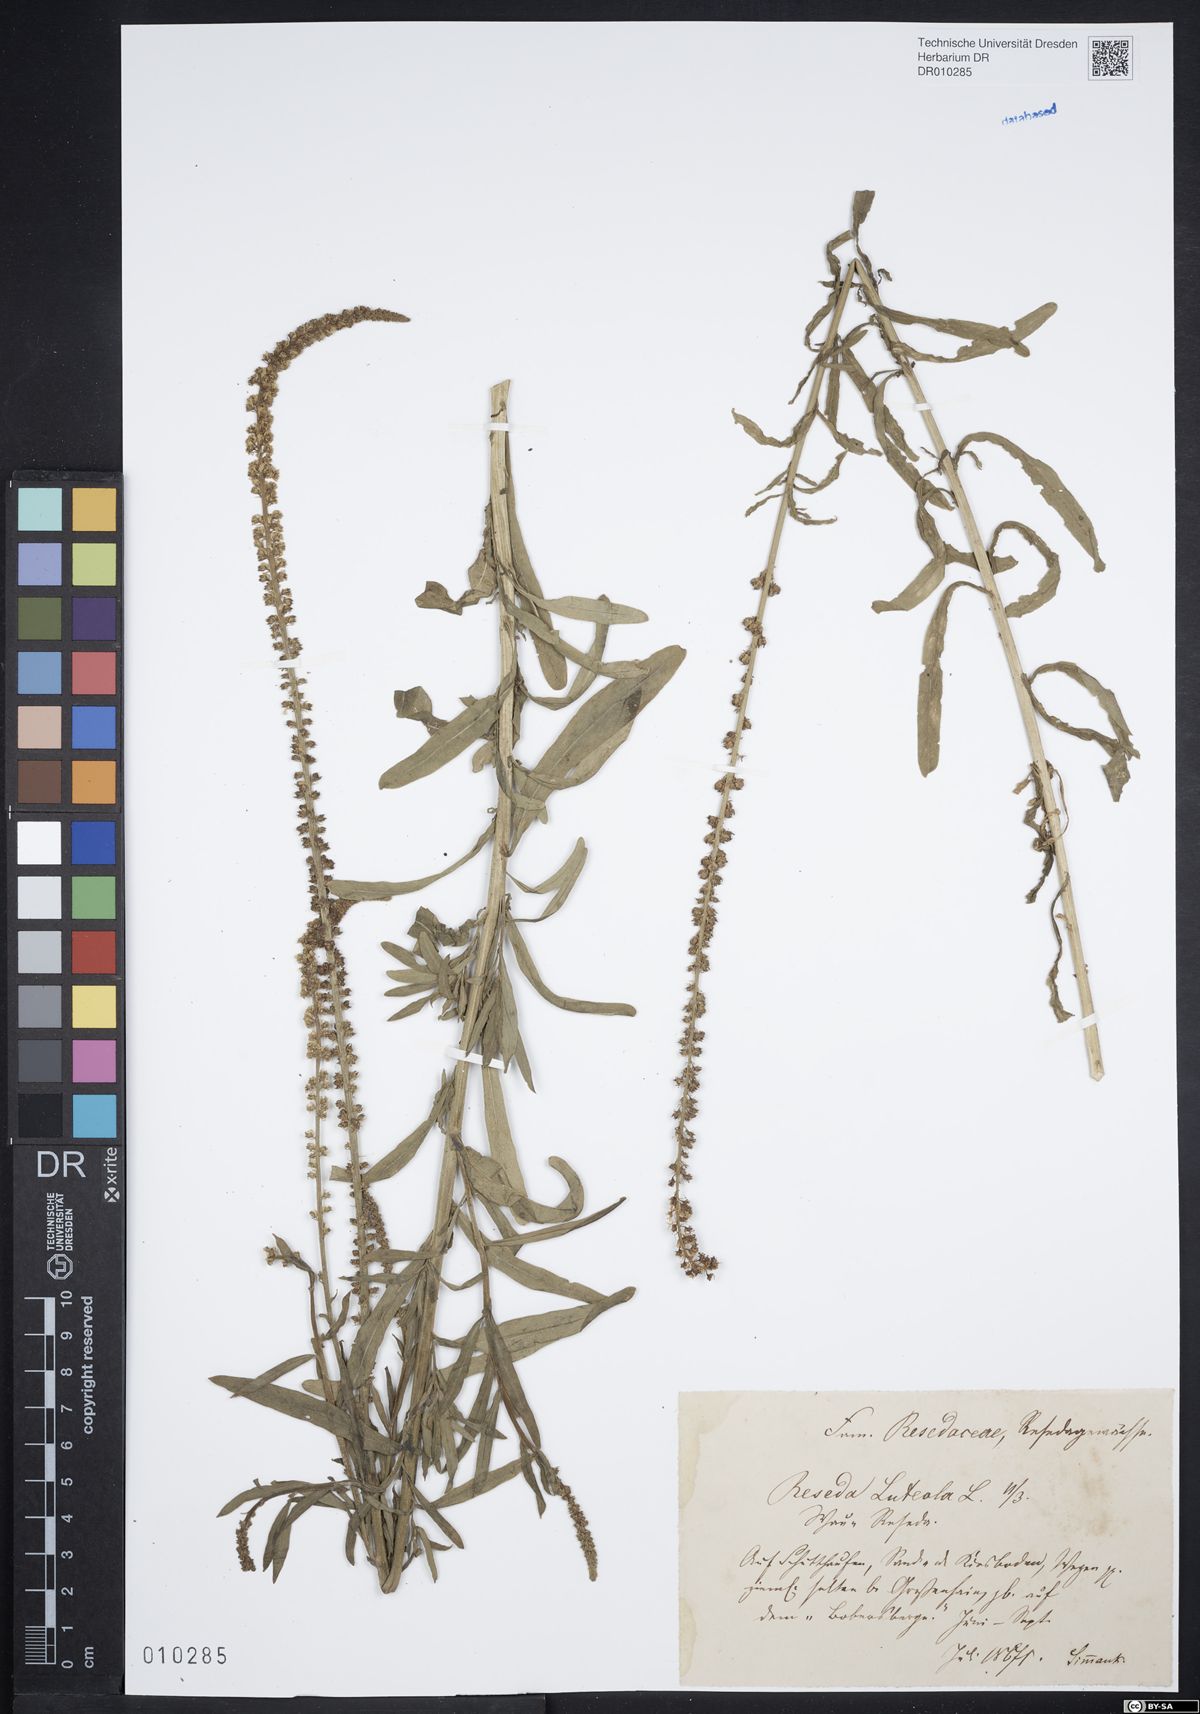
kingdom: Plantae
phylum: Tracheophyta
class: Magnoliopsida
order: Brassicales
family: Resedaceae
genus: Reseda
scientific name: Reseda luteola
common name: Weld
